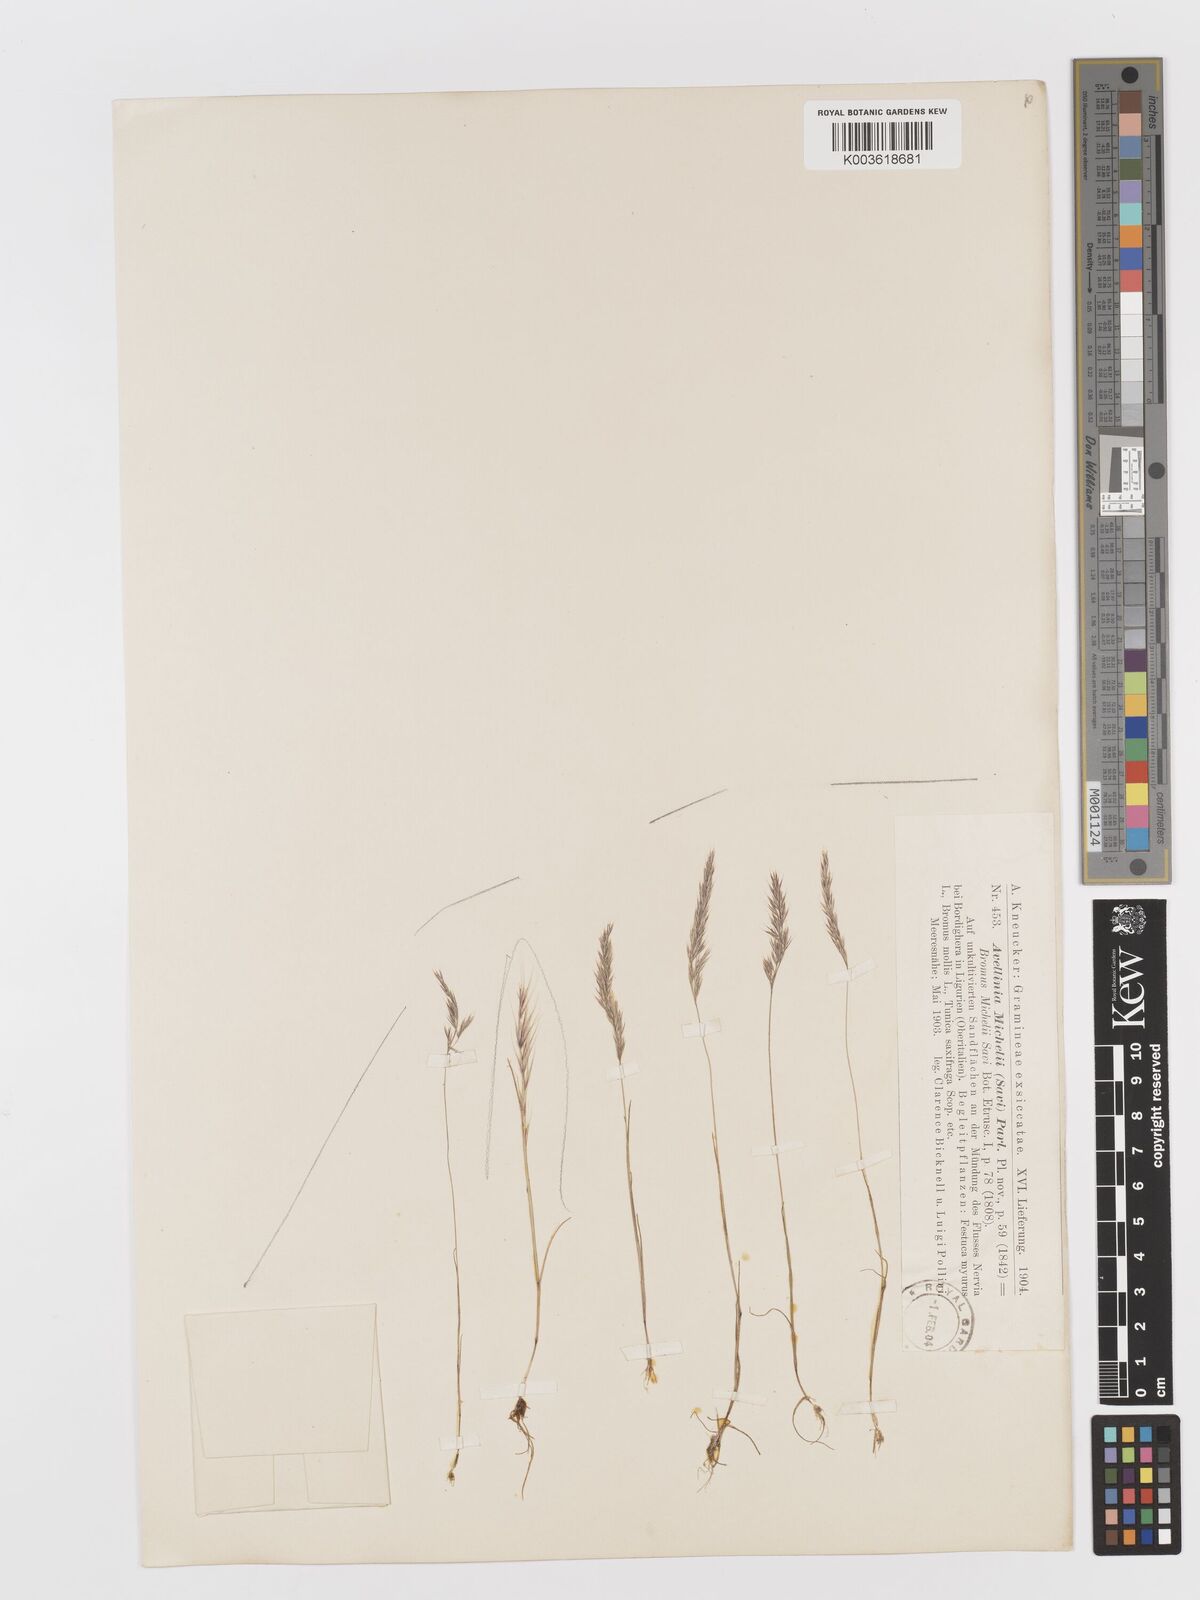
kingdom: Plantae
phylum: Tracheophyta
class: Liliopsida
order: Poales
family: Poaceae
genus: Avellinia
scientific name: Avellinia festucoides
